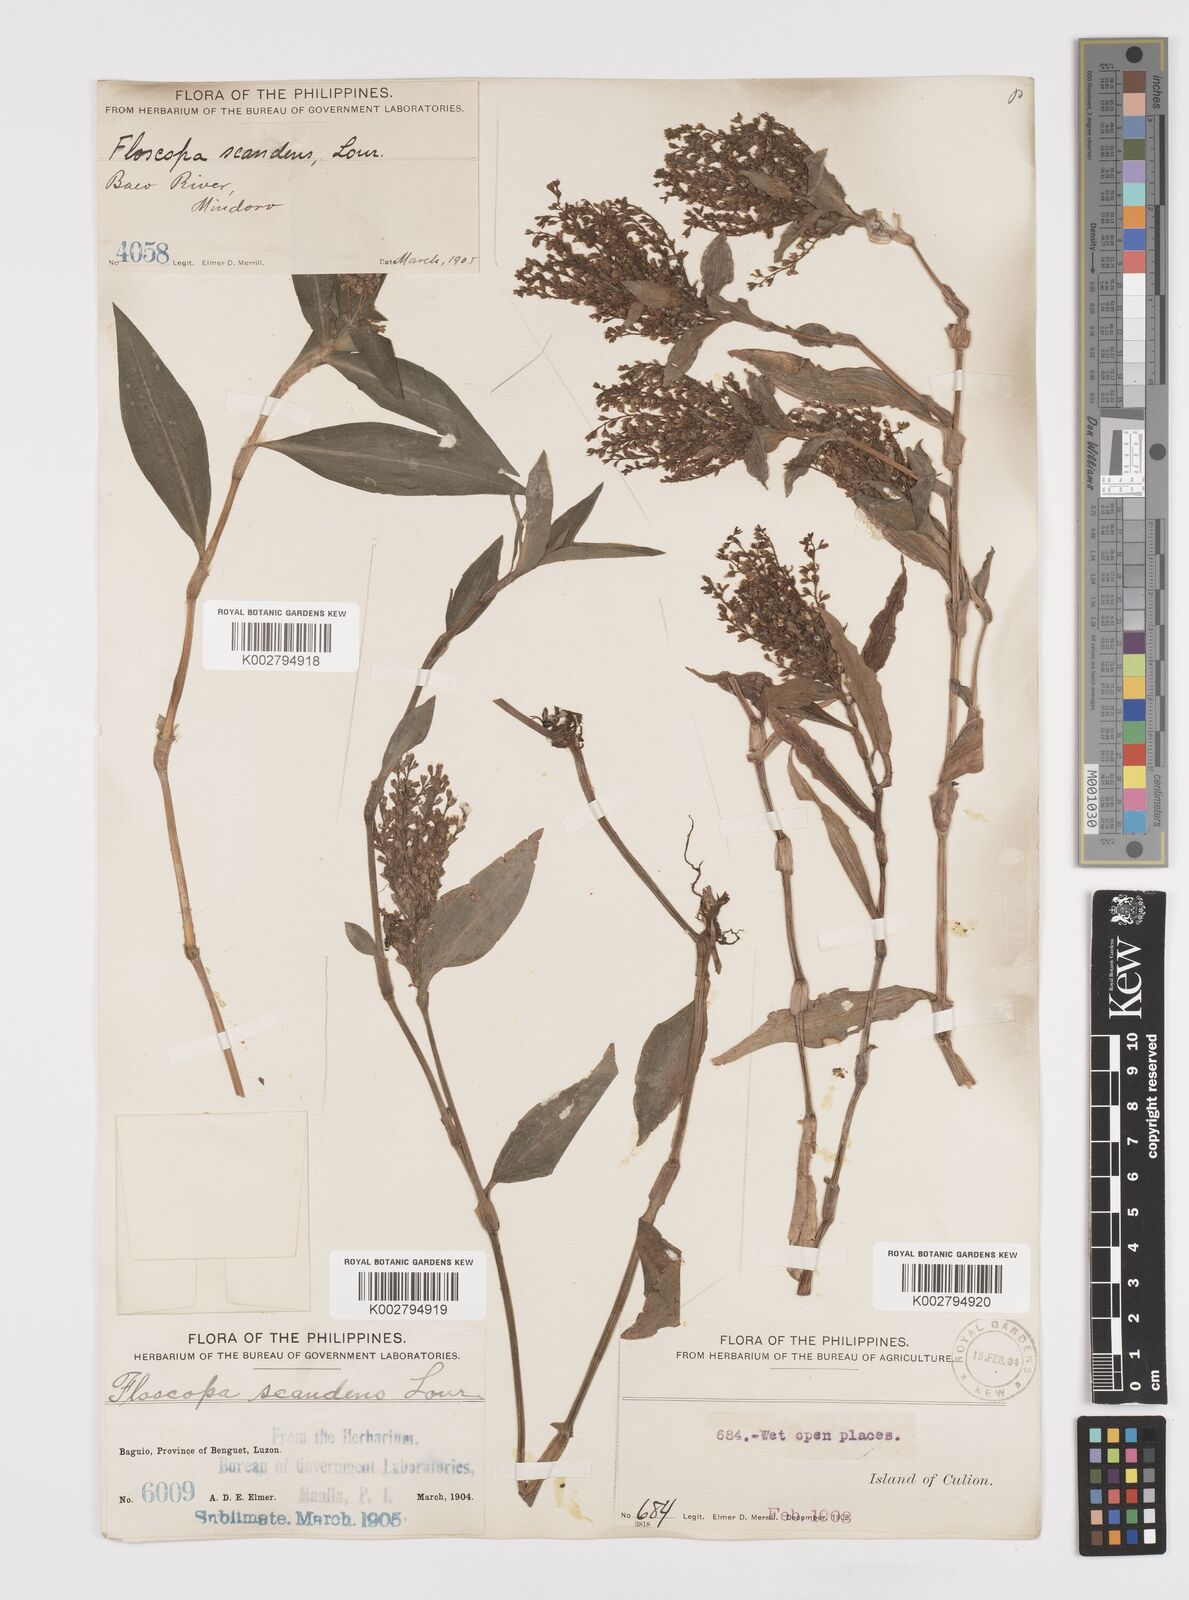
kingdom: Plantae
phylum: Tracheophyta
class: Liliopsida
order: Commelinales
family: Commelinaceae
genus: Floscopa
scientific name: Floscopa scandens
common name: Climbing flower cup
